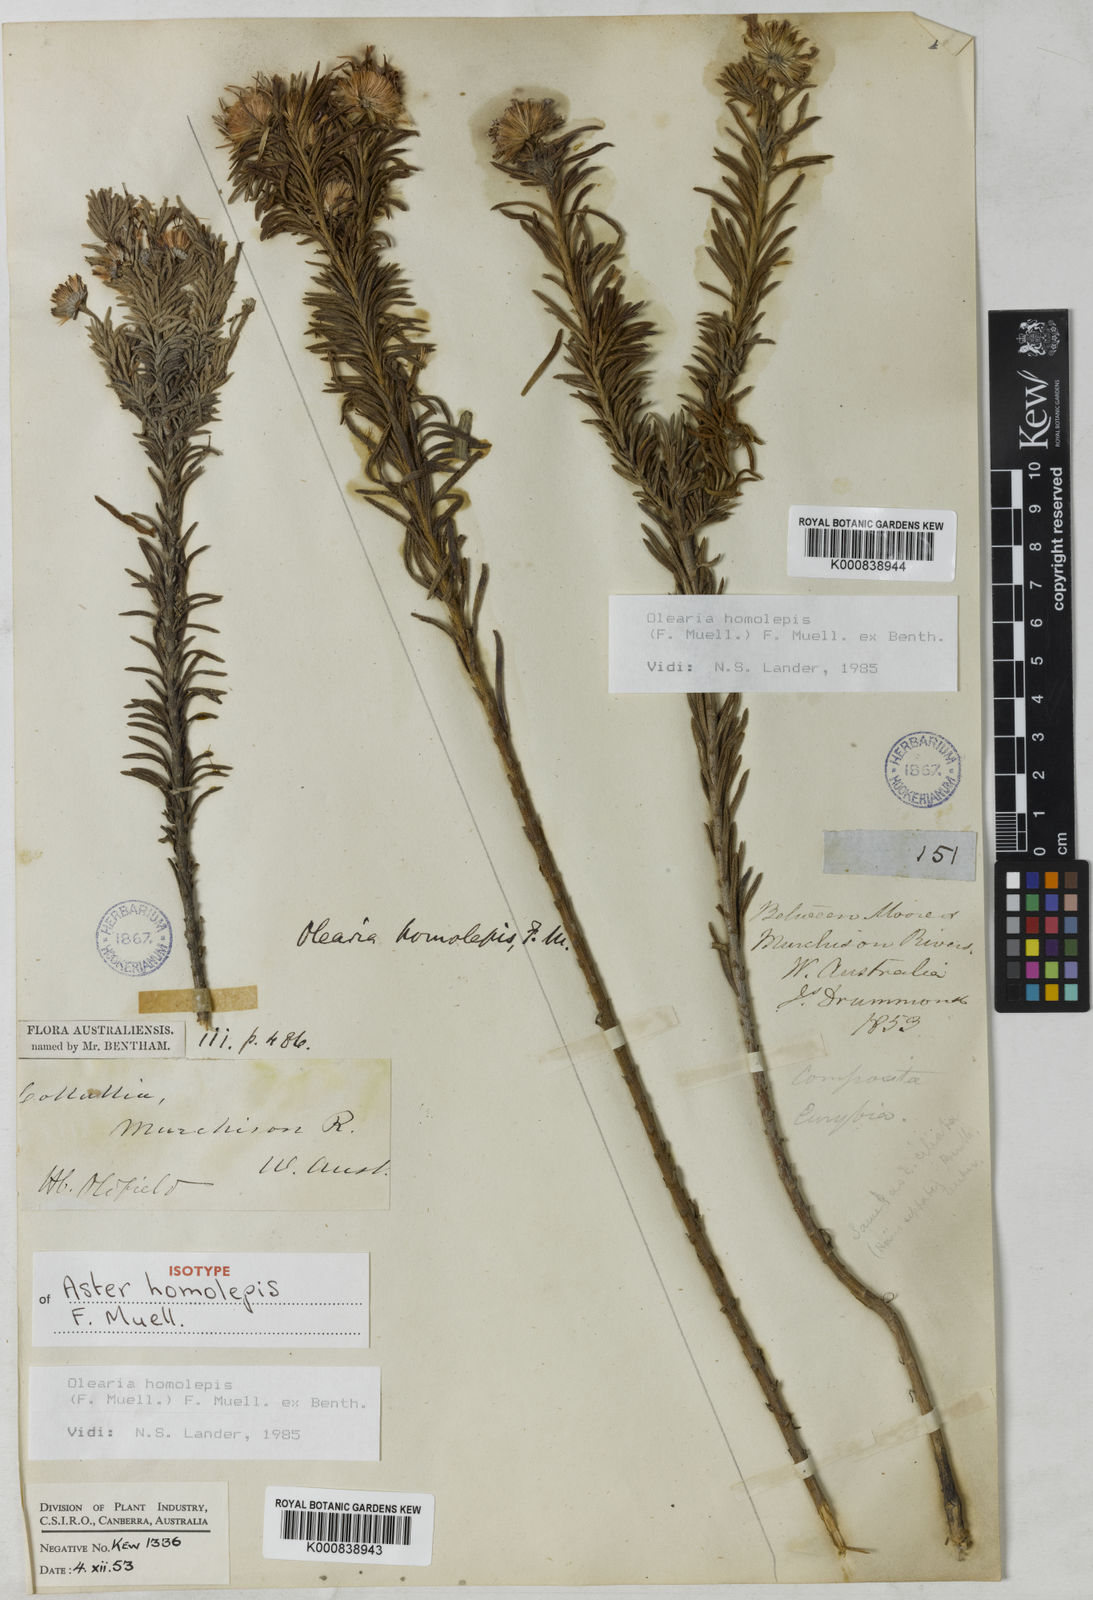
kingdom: Plantae
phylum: Tracheophyta
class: Magnoliopsida
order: Asterales
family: Asteraceae
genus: Olearia
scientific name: Olearia homolepis
